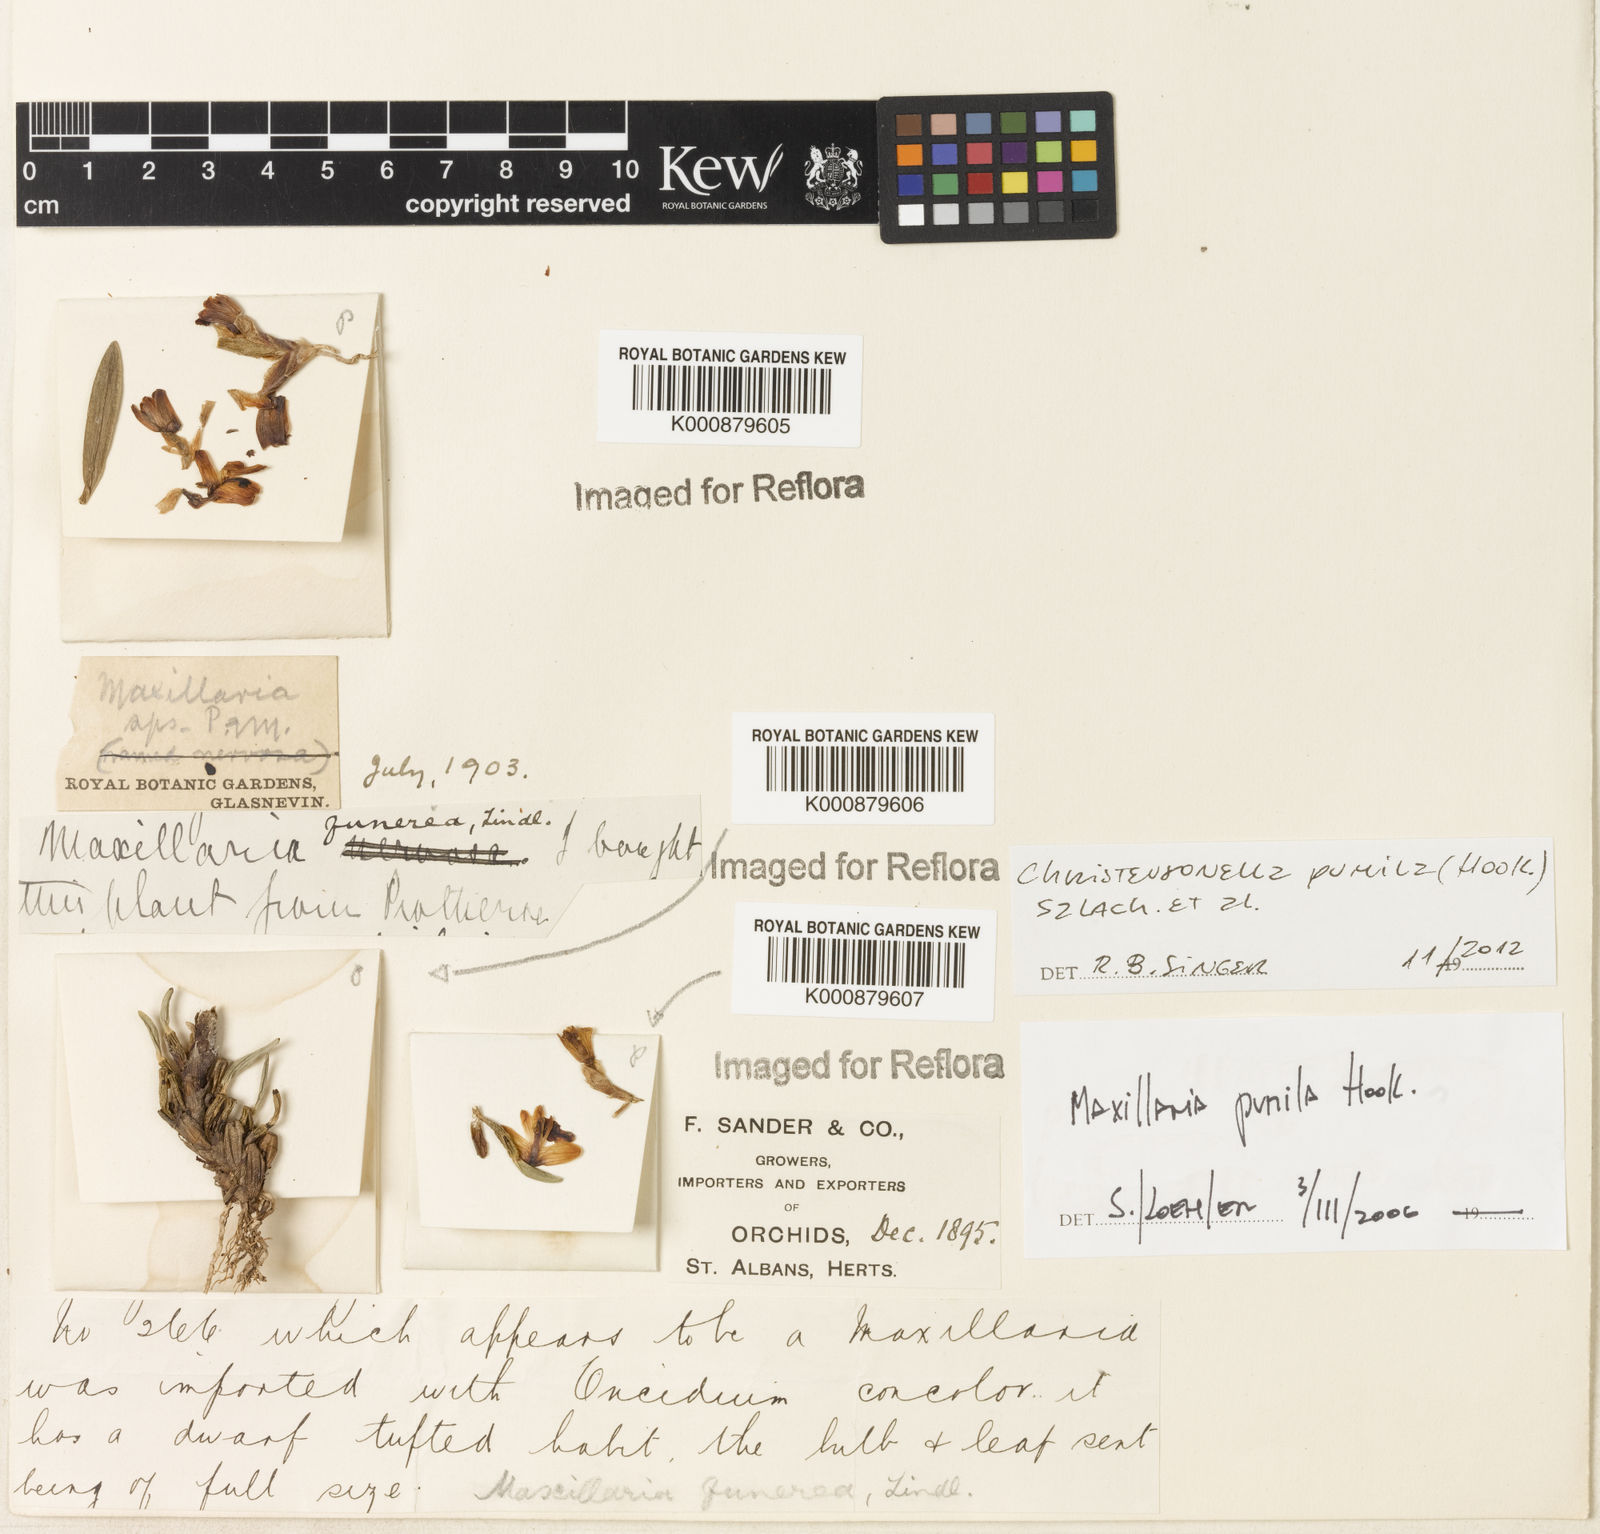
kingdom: Plantae
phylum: Tracheophyta
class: Liliopsida
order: Asparagales
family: Orchidaceae
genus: Maxillaria
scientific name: Maxillaria pumila
